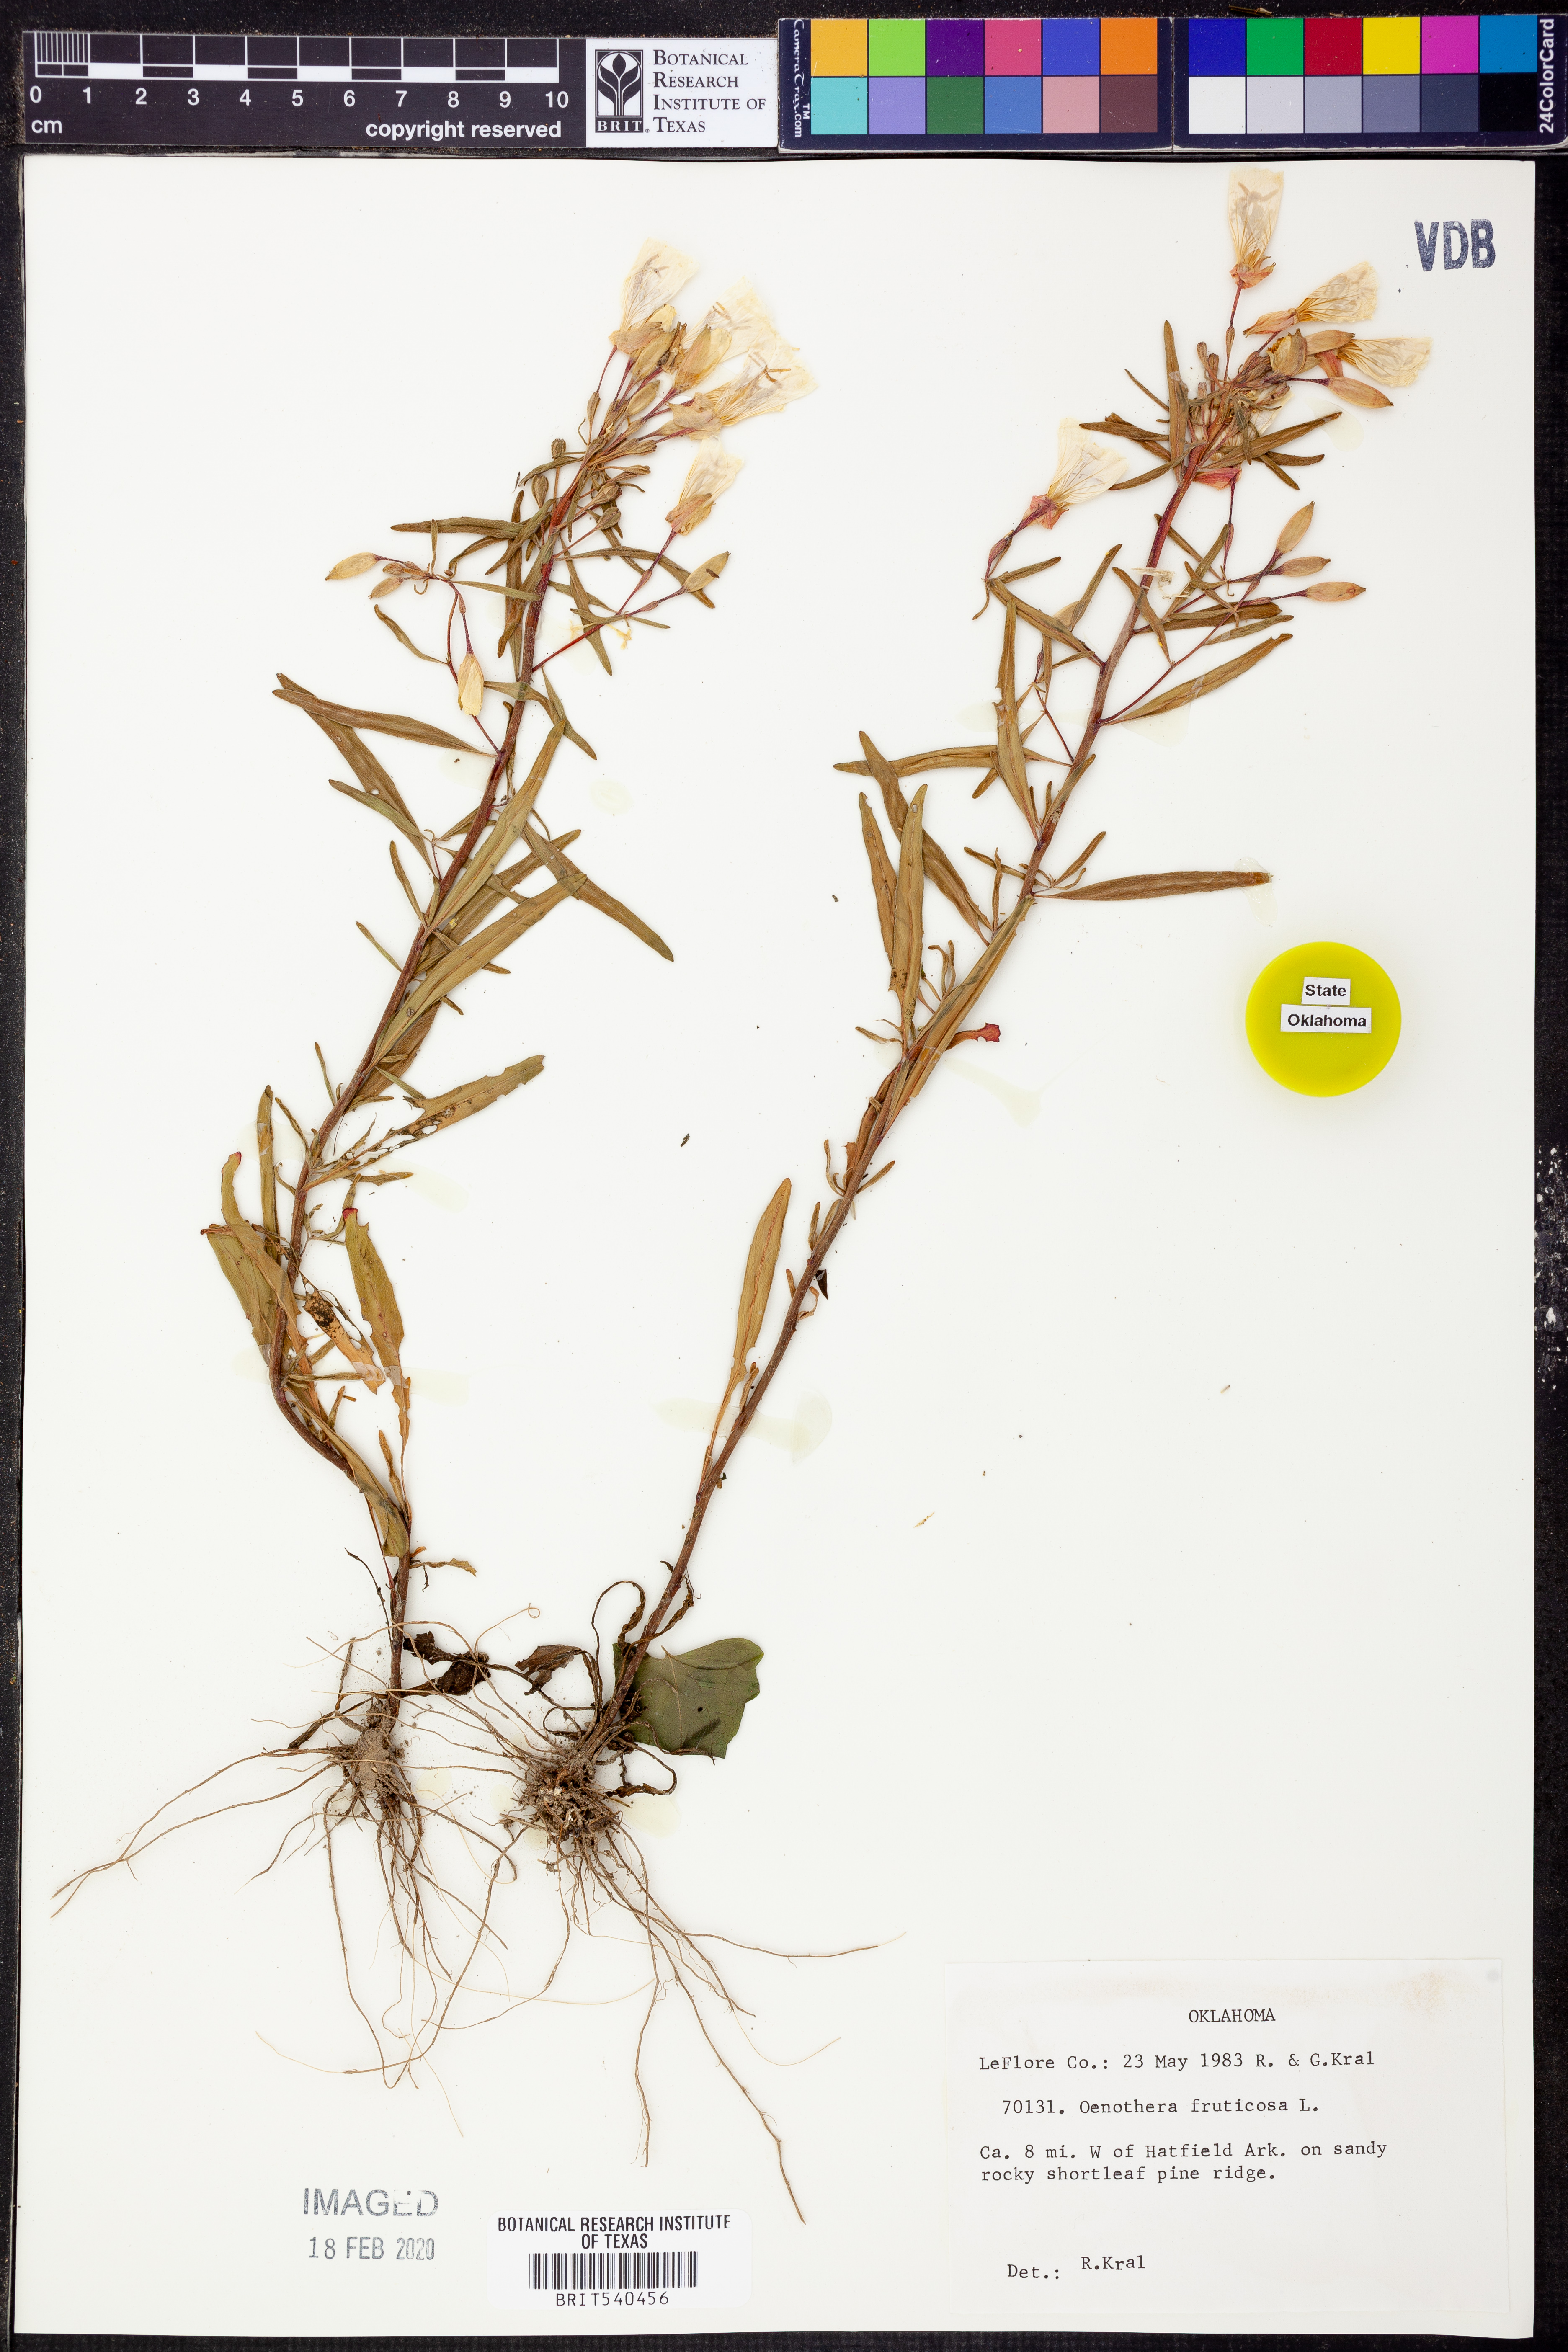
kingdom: Plantae
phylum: Tracheophyta
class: Magnoliopsida
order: Myrtales
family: Onagraceae
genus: Oenothera
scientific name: Oenothera fruticosa
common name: Southern sundrops
